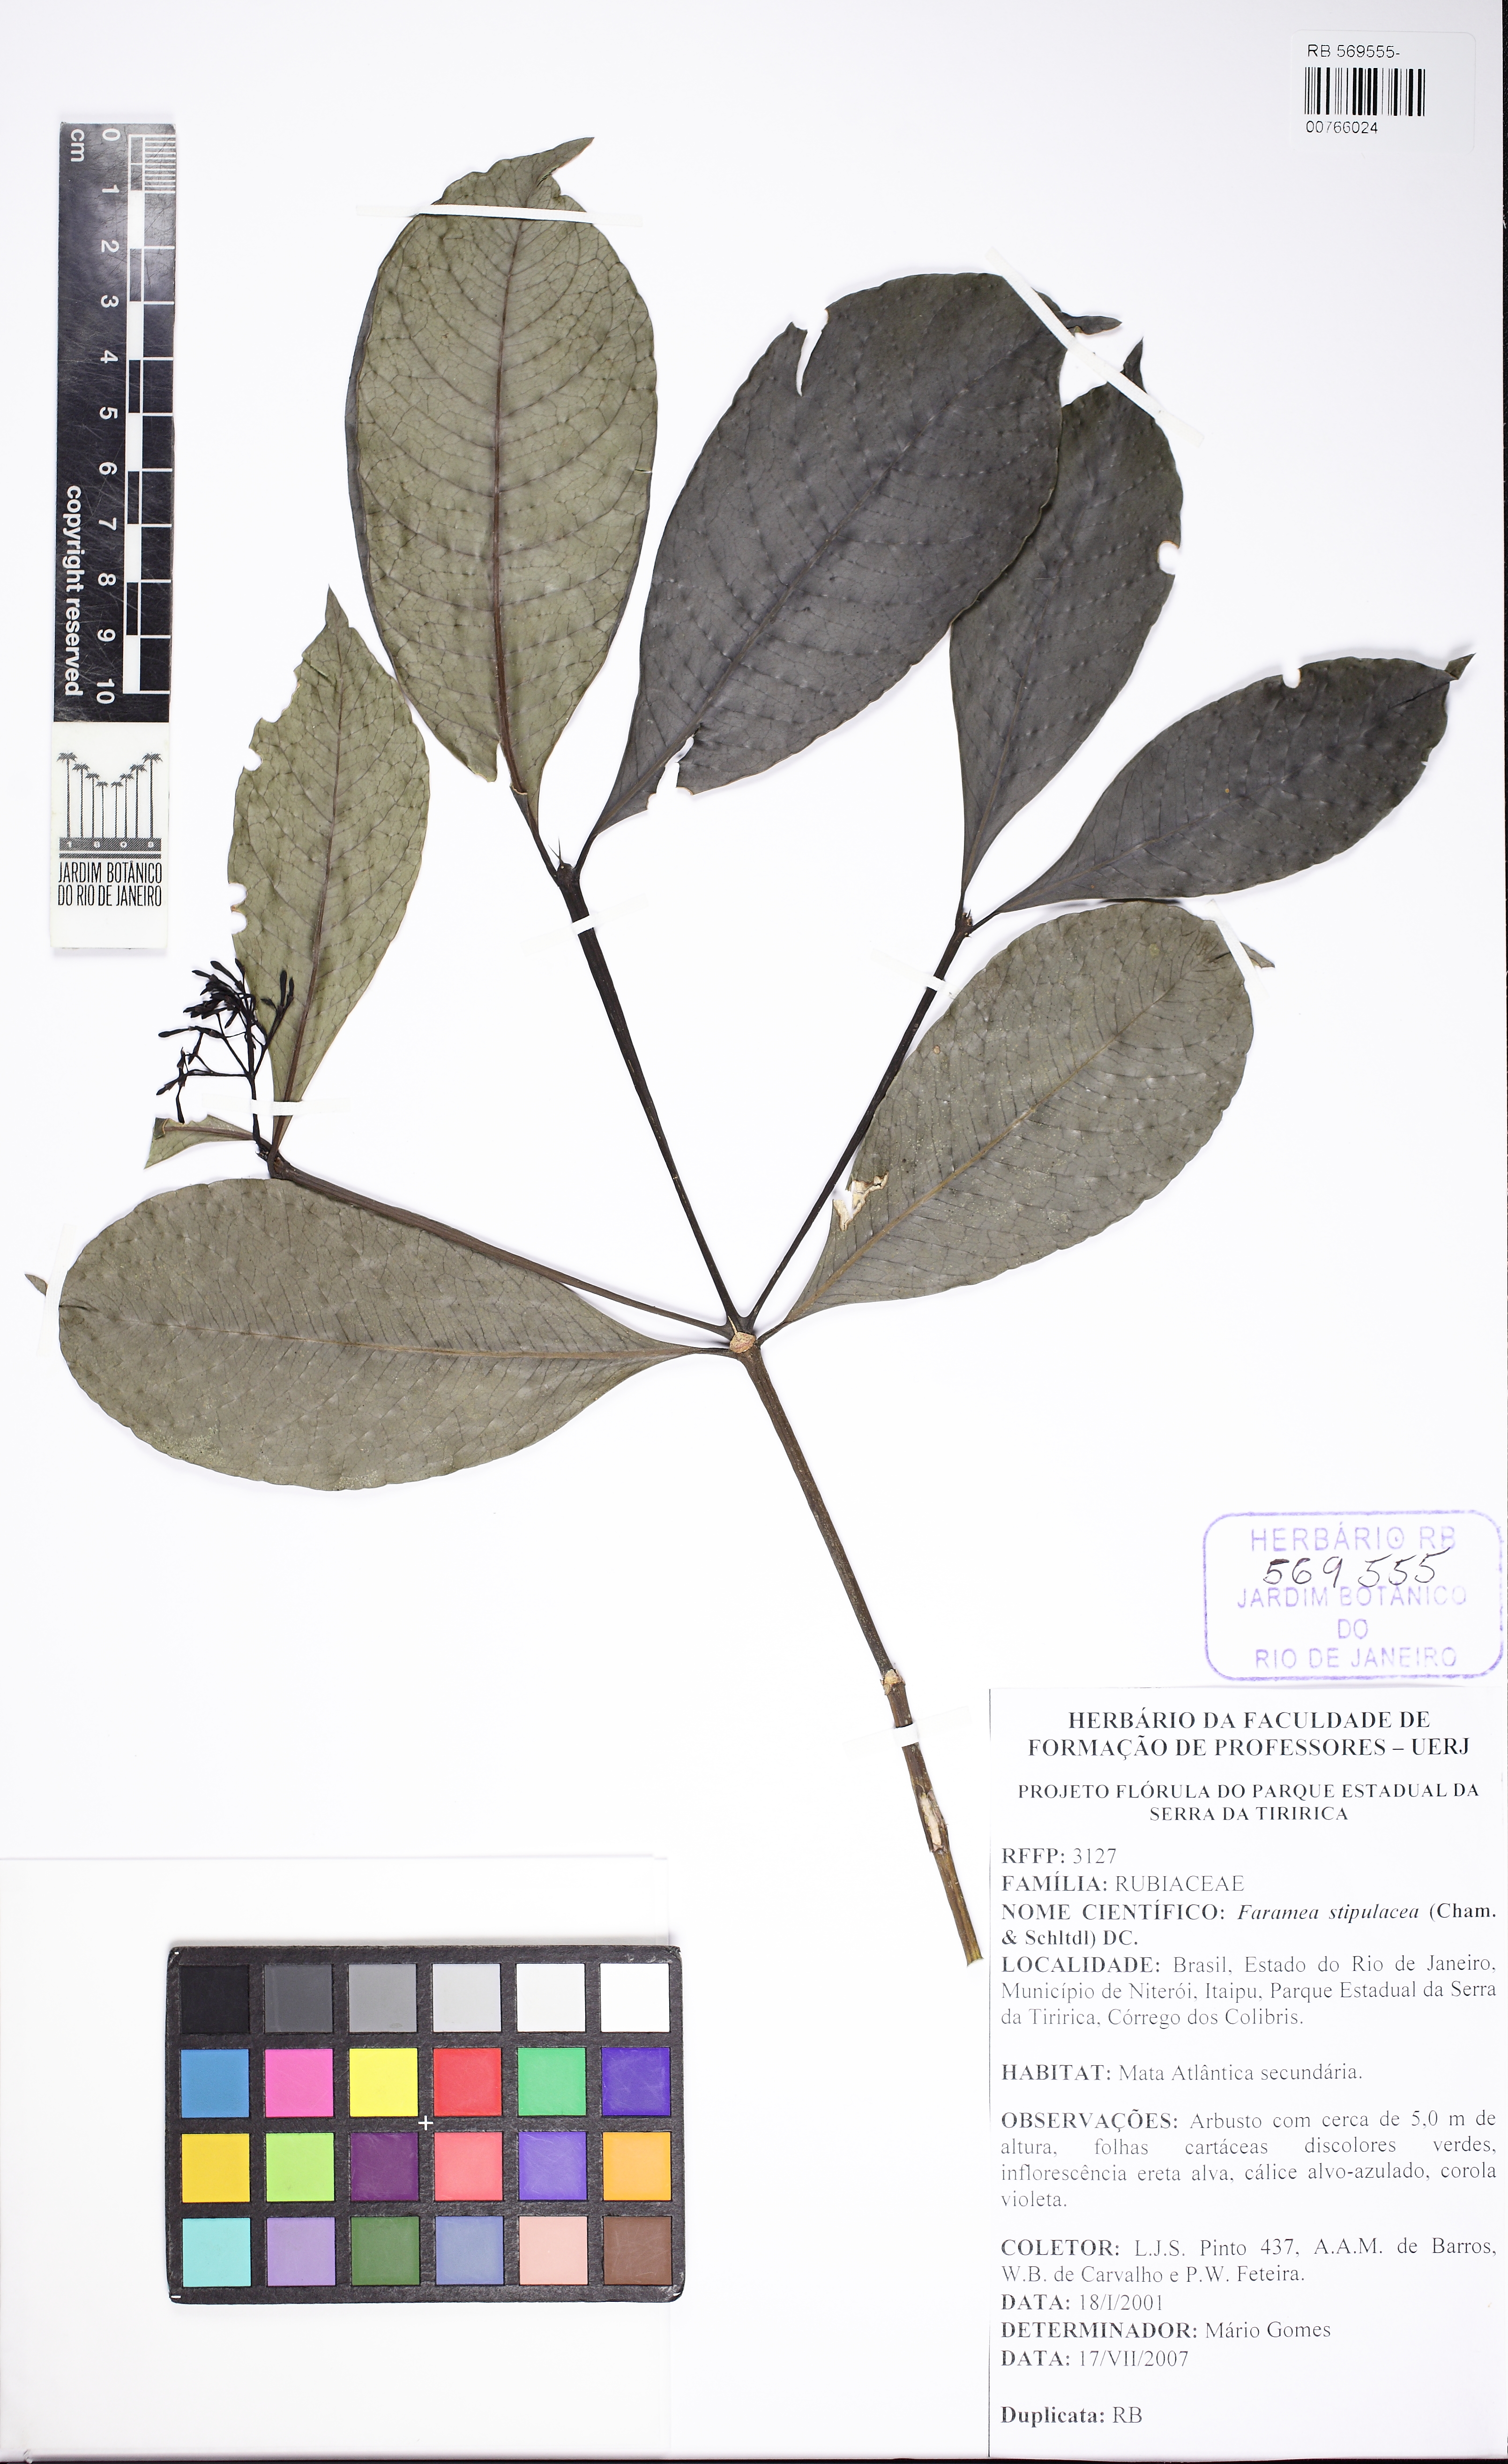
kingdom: Plantae
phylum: Tracheophyta
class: Magnoliopsida
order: Gentianales
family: Rubiaceae
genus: Faramea
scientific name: Faramea stipulacea
